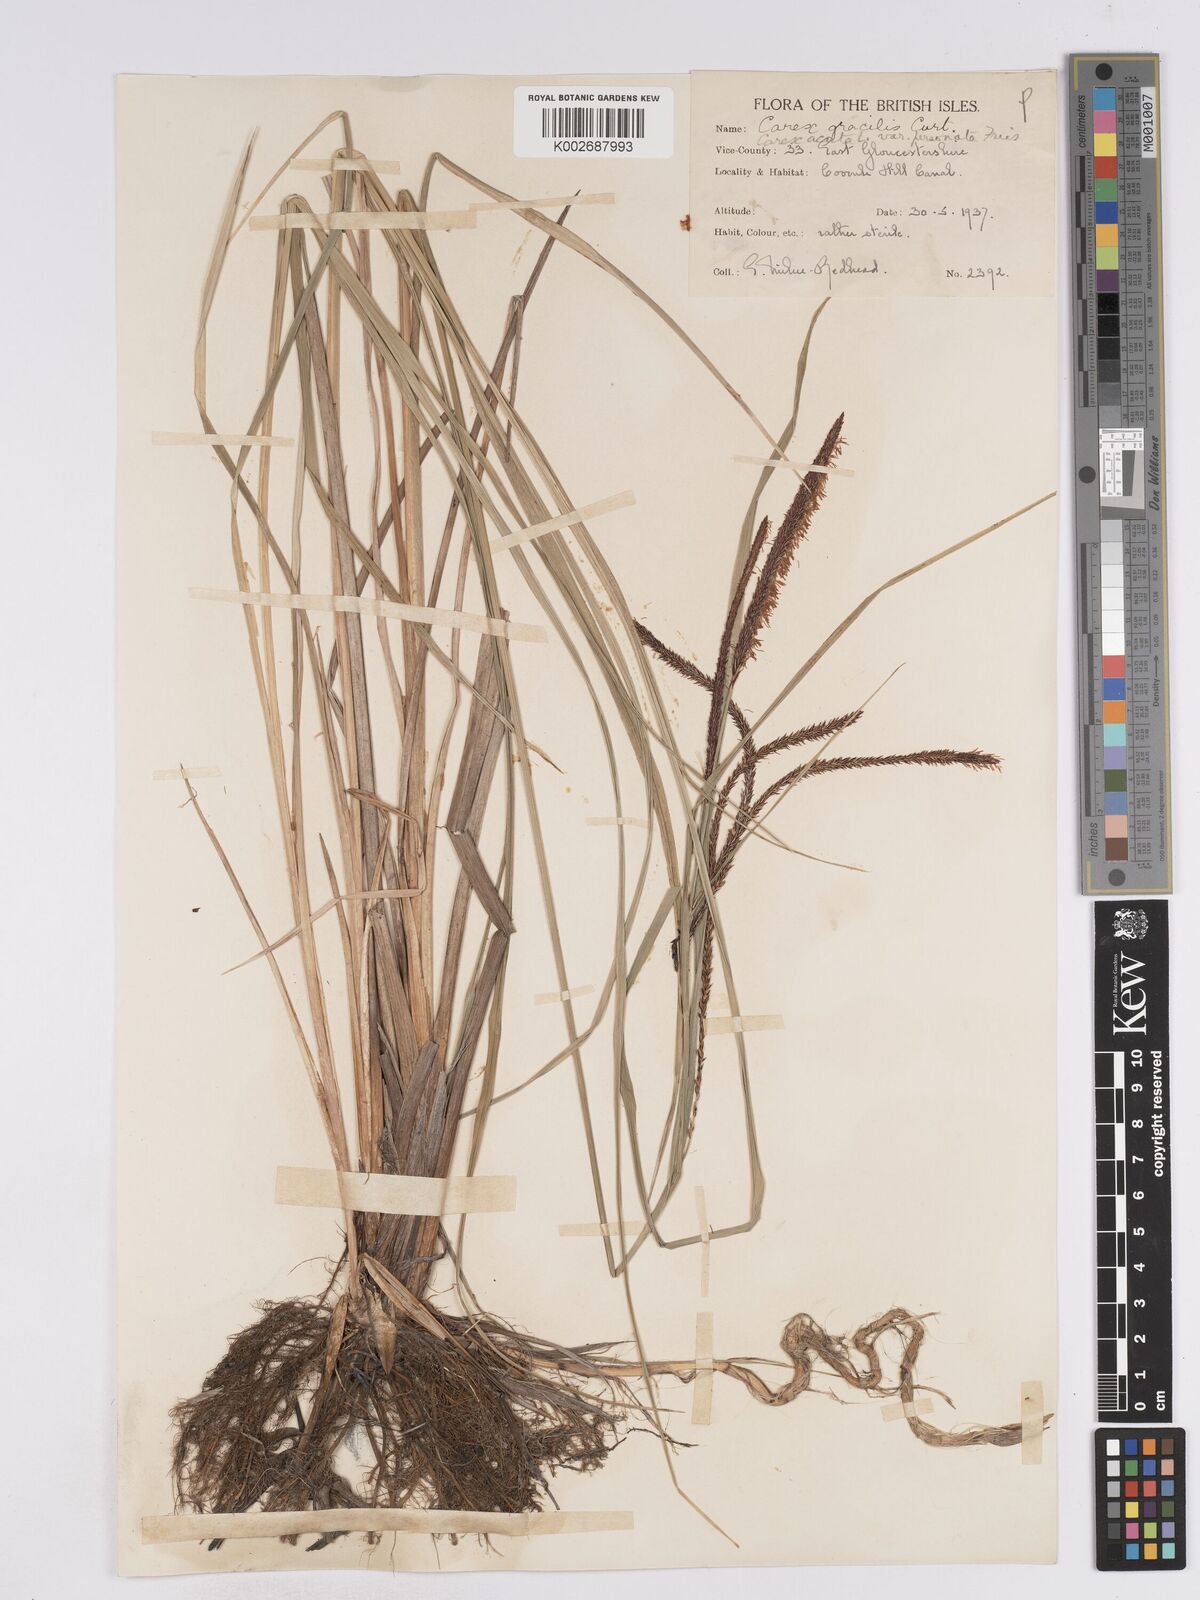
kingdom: Plantae
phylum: Tracheophyta
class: Liliopsida
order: Poales
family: Cyperaceae
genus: Carex
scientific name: Carex acuta
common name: Slender tufted-sedge
